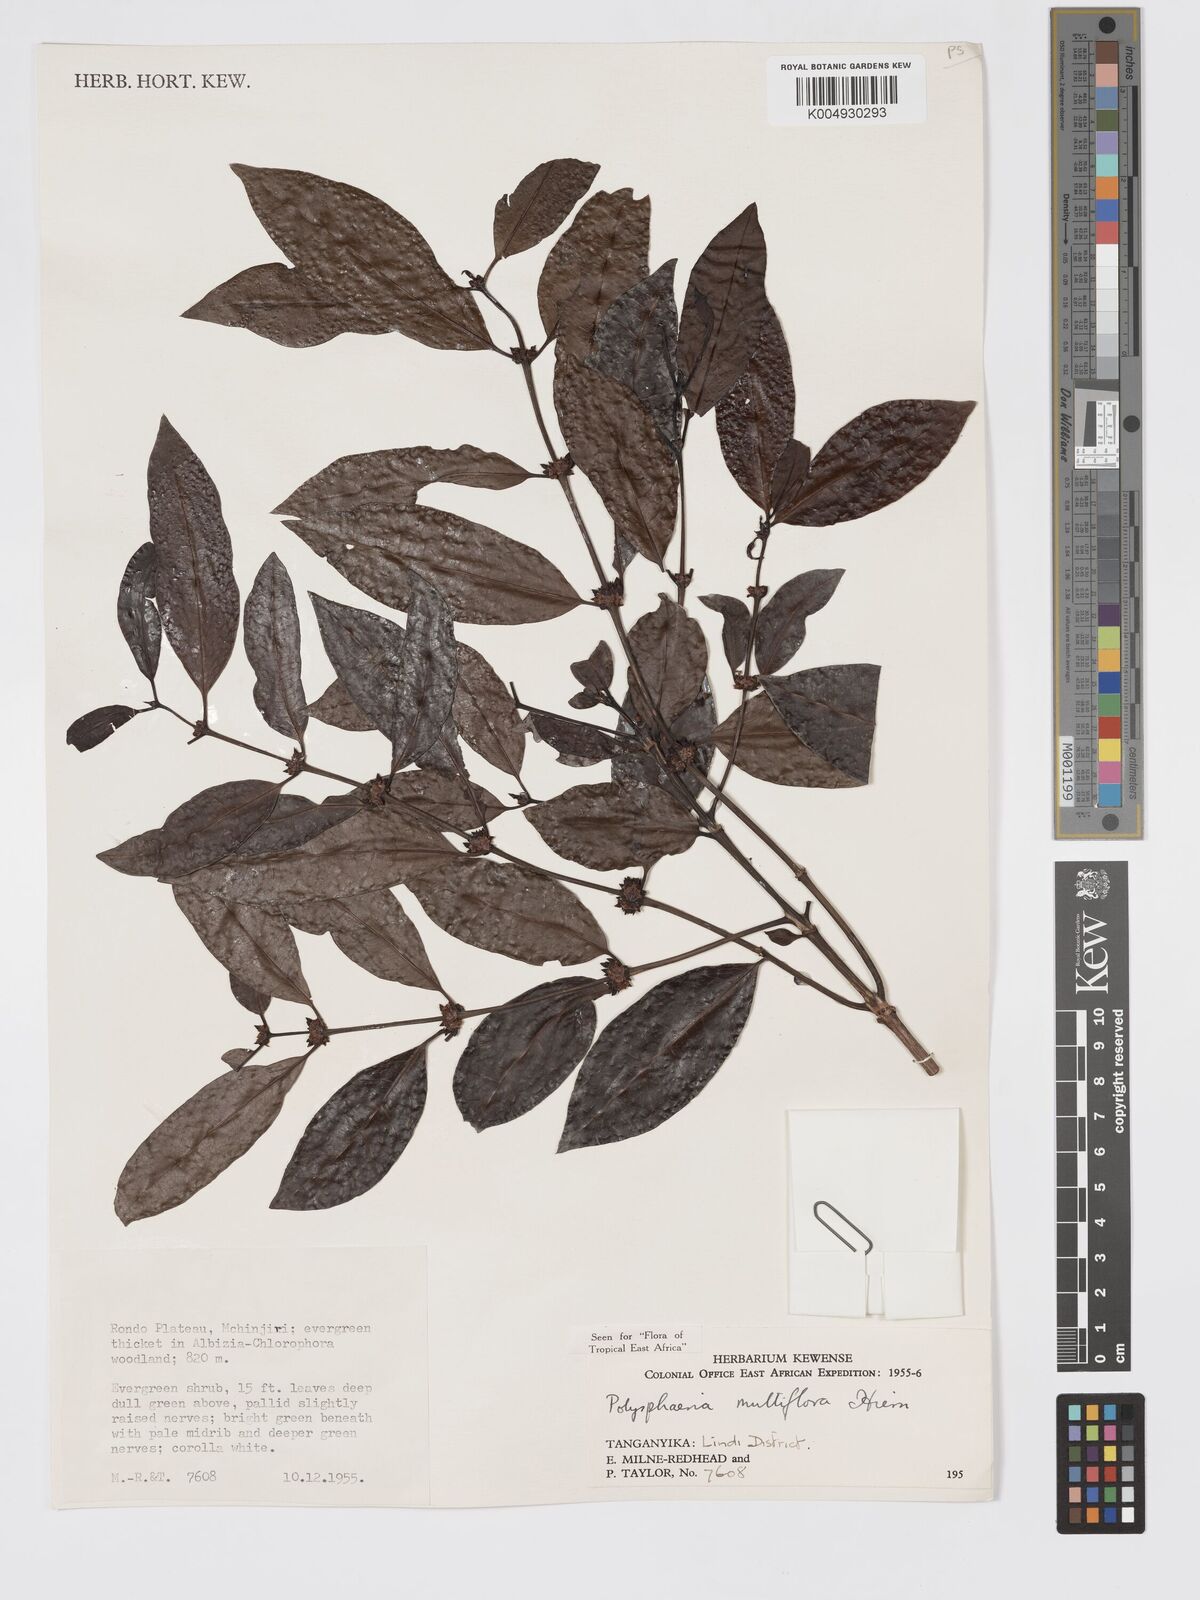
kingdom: Plantae
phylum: Tracheophyta
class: Magnoliopsida
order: Gentianales
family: Rubiaceae
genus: Polysphaeria
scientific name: Polysphaeria multiflora
